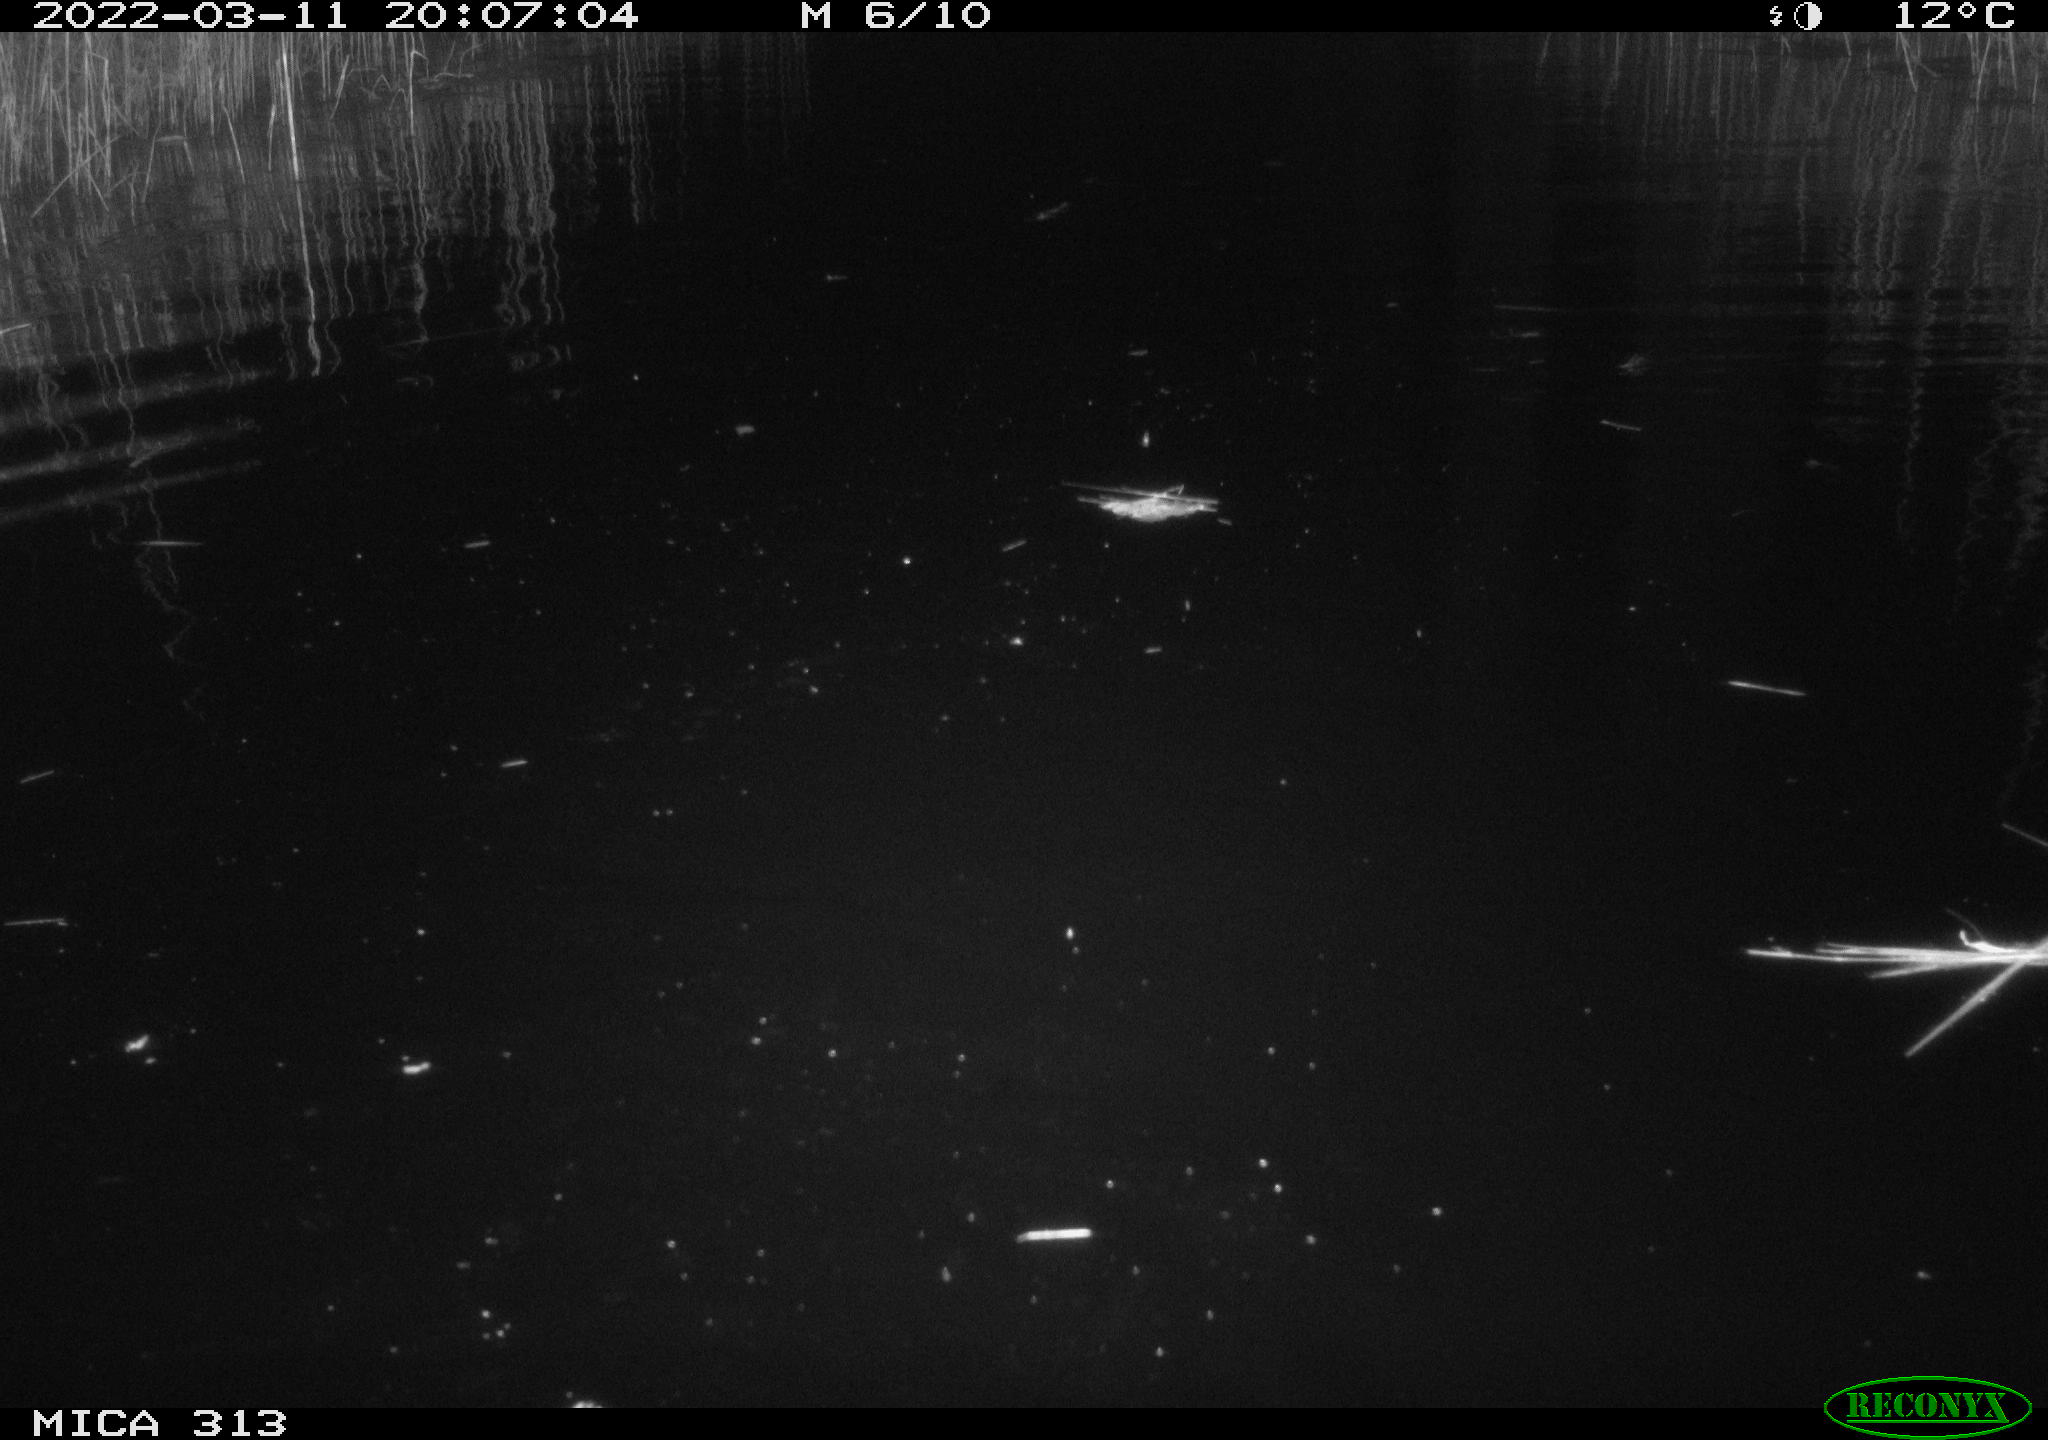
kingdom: Animalia
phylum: Chordata
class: Mammalia
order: Rodentia
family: Cricetidae
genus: Ondatra
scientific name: Ondatra zibethicus
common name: Muskrat
